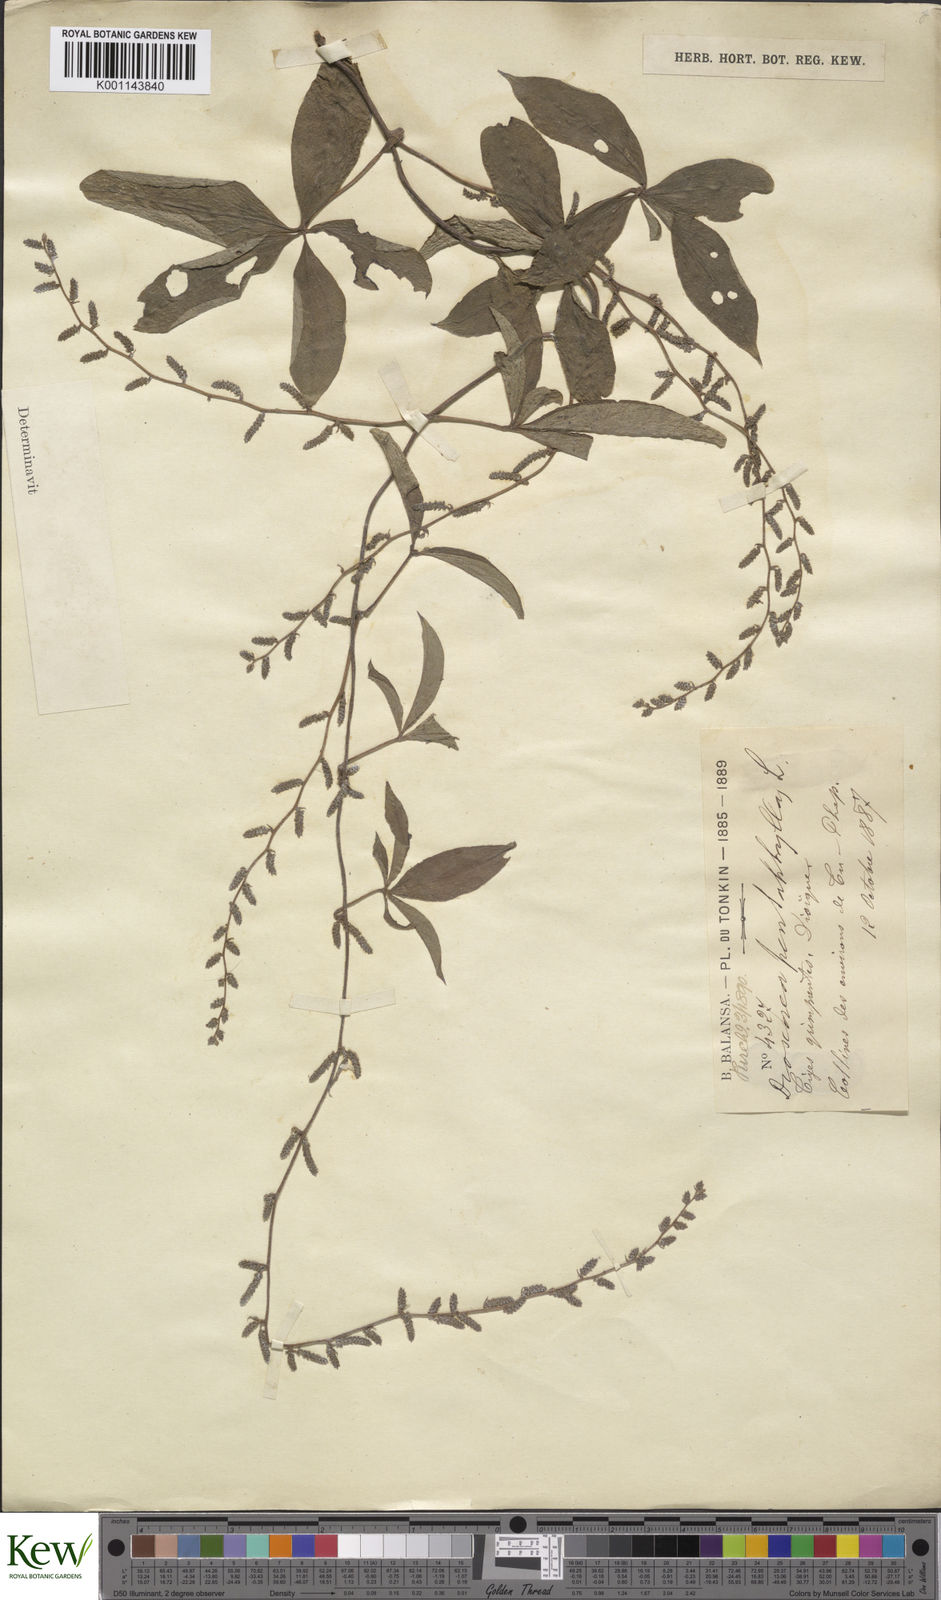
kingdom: Plantae
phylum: Tracheophyta
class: Liliopsida
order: Dioscoreales
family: Dioscoreaceae
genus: Dioscorea
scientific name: Dioscorea pentaphylla
